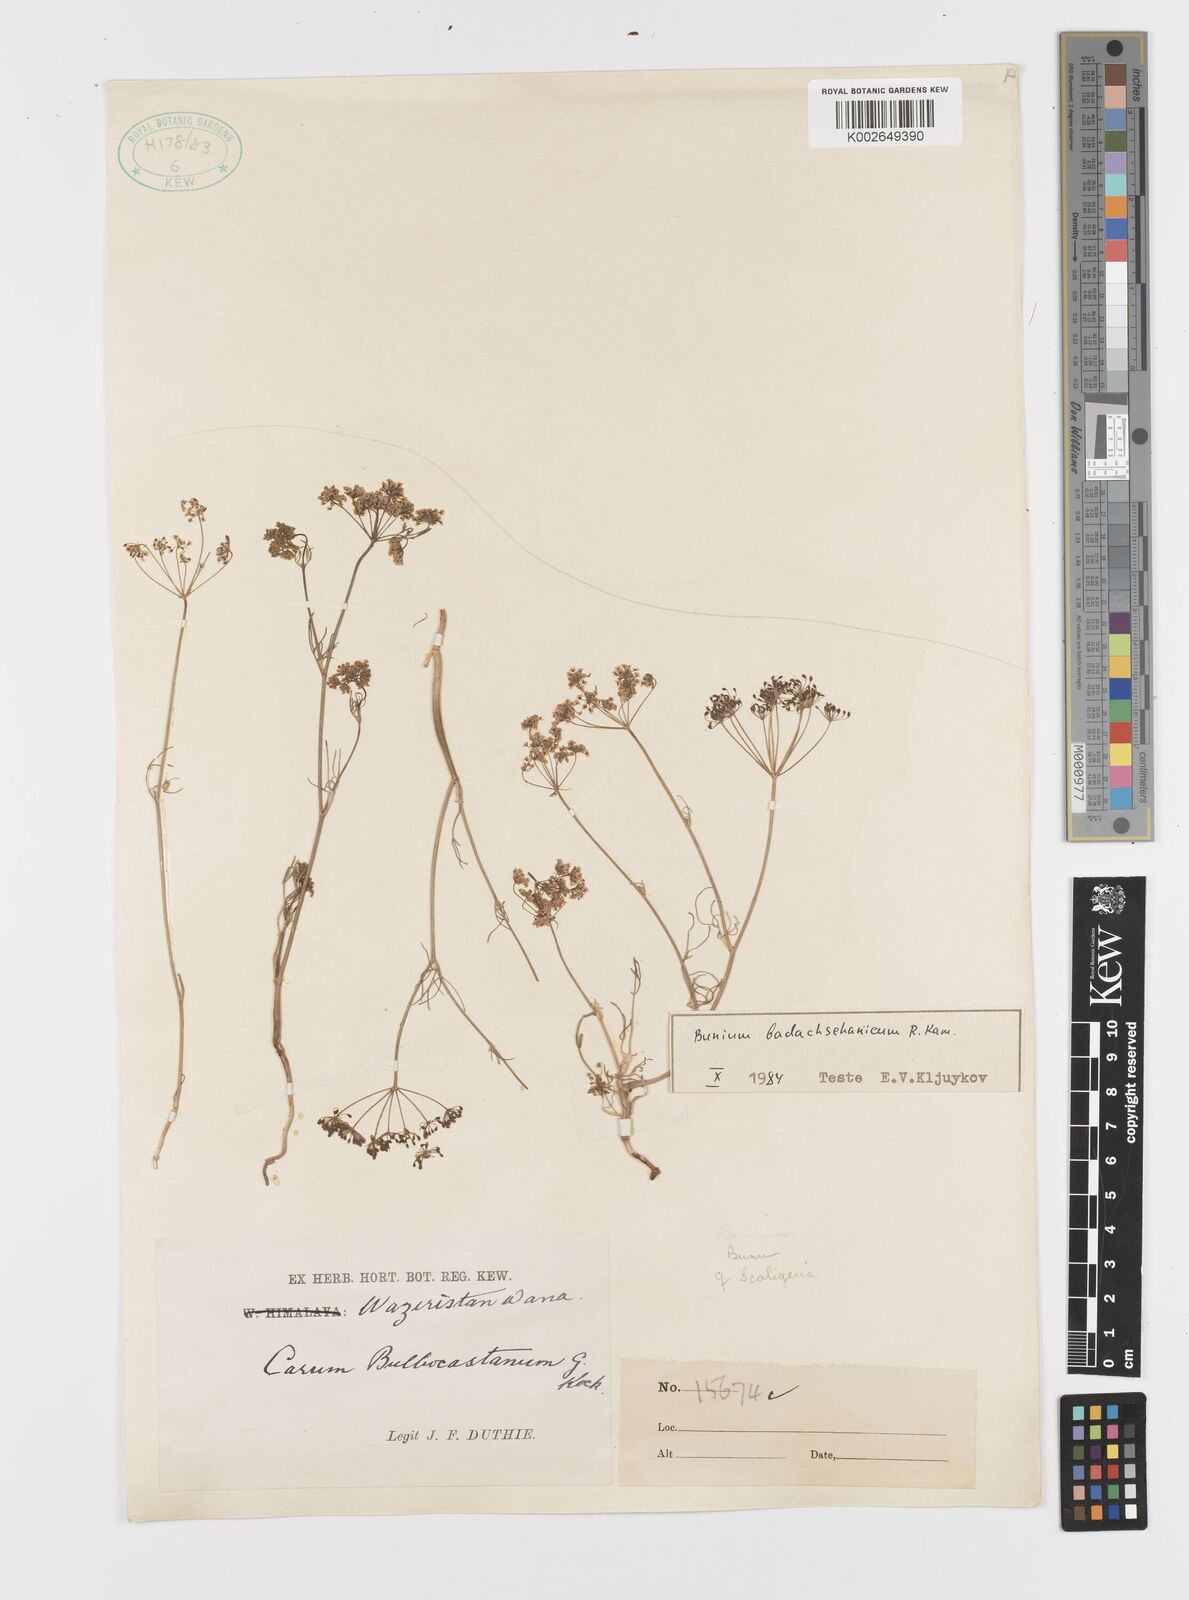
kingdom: Plantae
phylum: Tracheophyta
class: Magnoliopsida
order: Apiales
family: Apiaceae
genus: Elwendia
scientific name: Elwendia badachschanica
